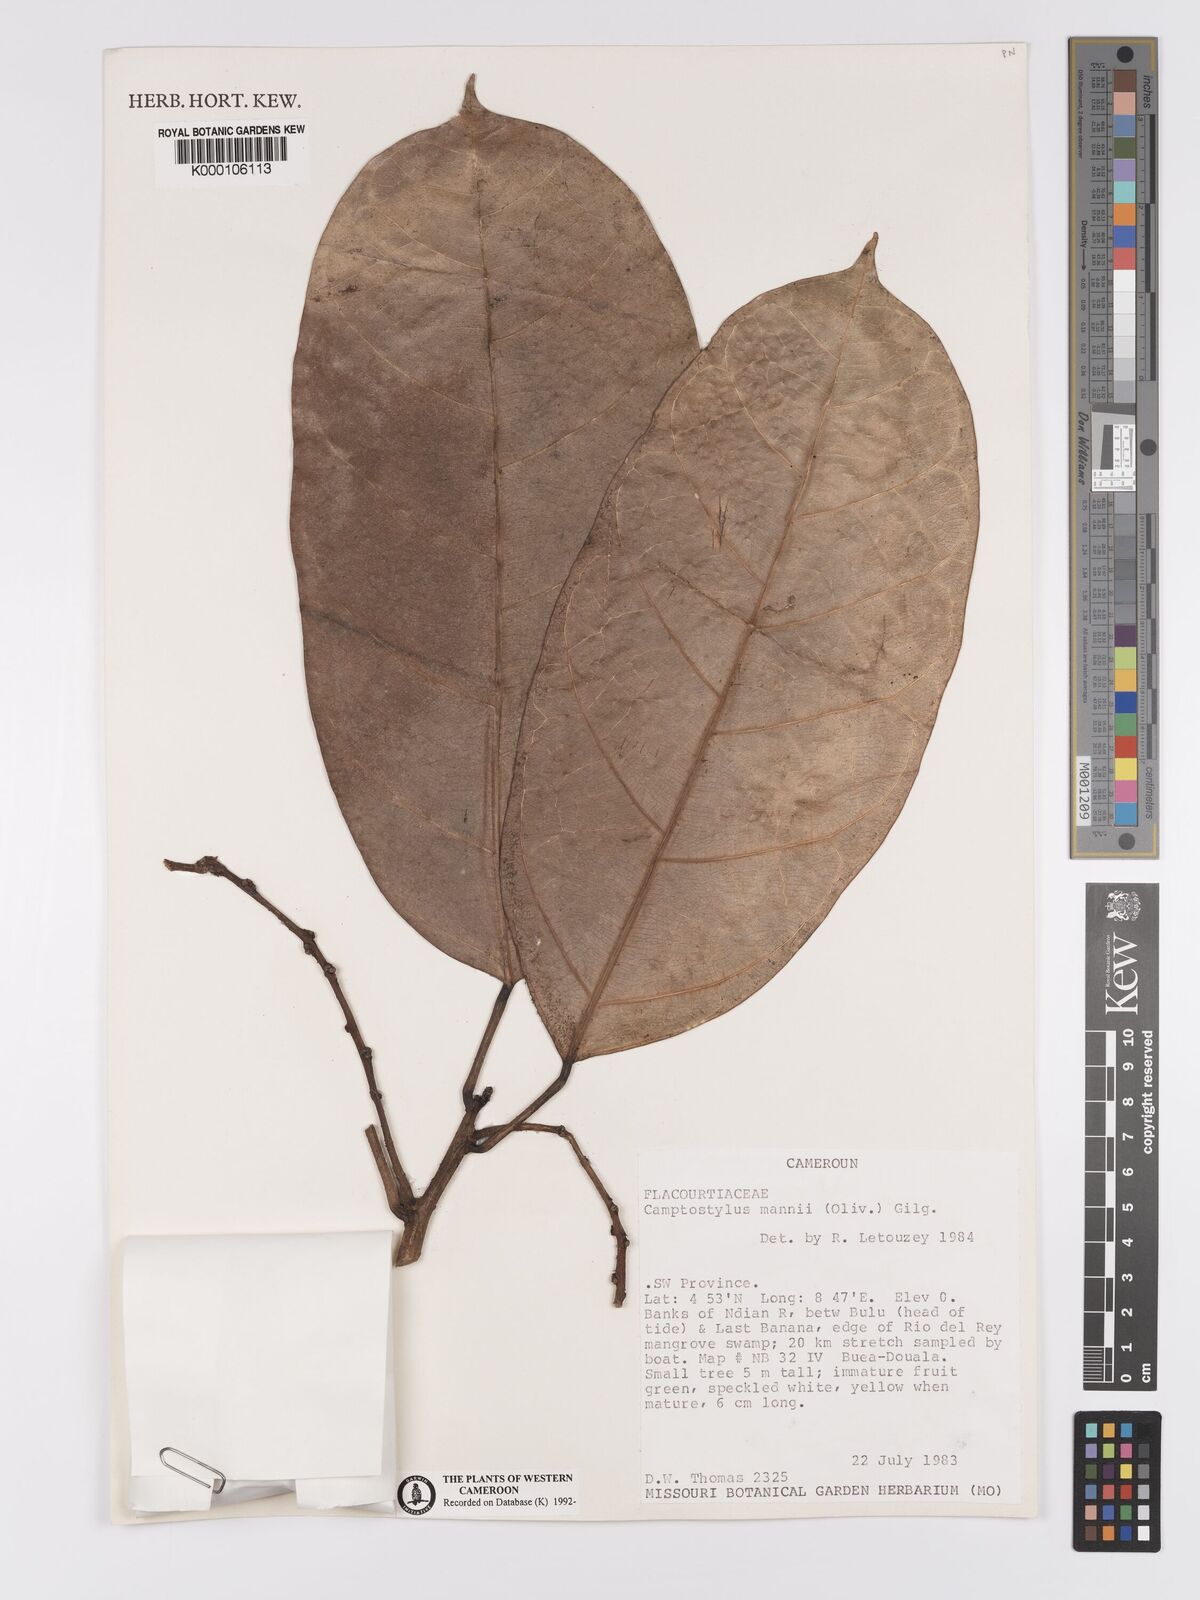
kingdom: Plantae
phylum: Tracheophyta
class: Magnoliopsida
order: Malpighiales
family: Achariaceae
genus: Camptostylus
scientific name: Camptostylus mannii
